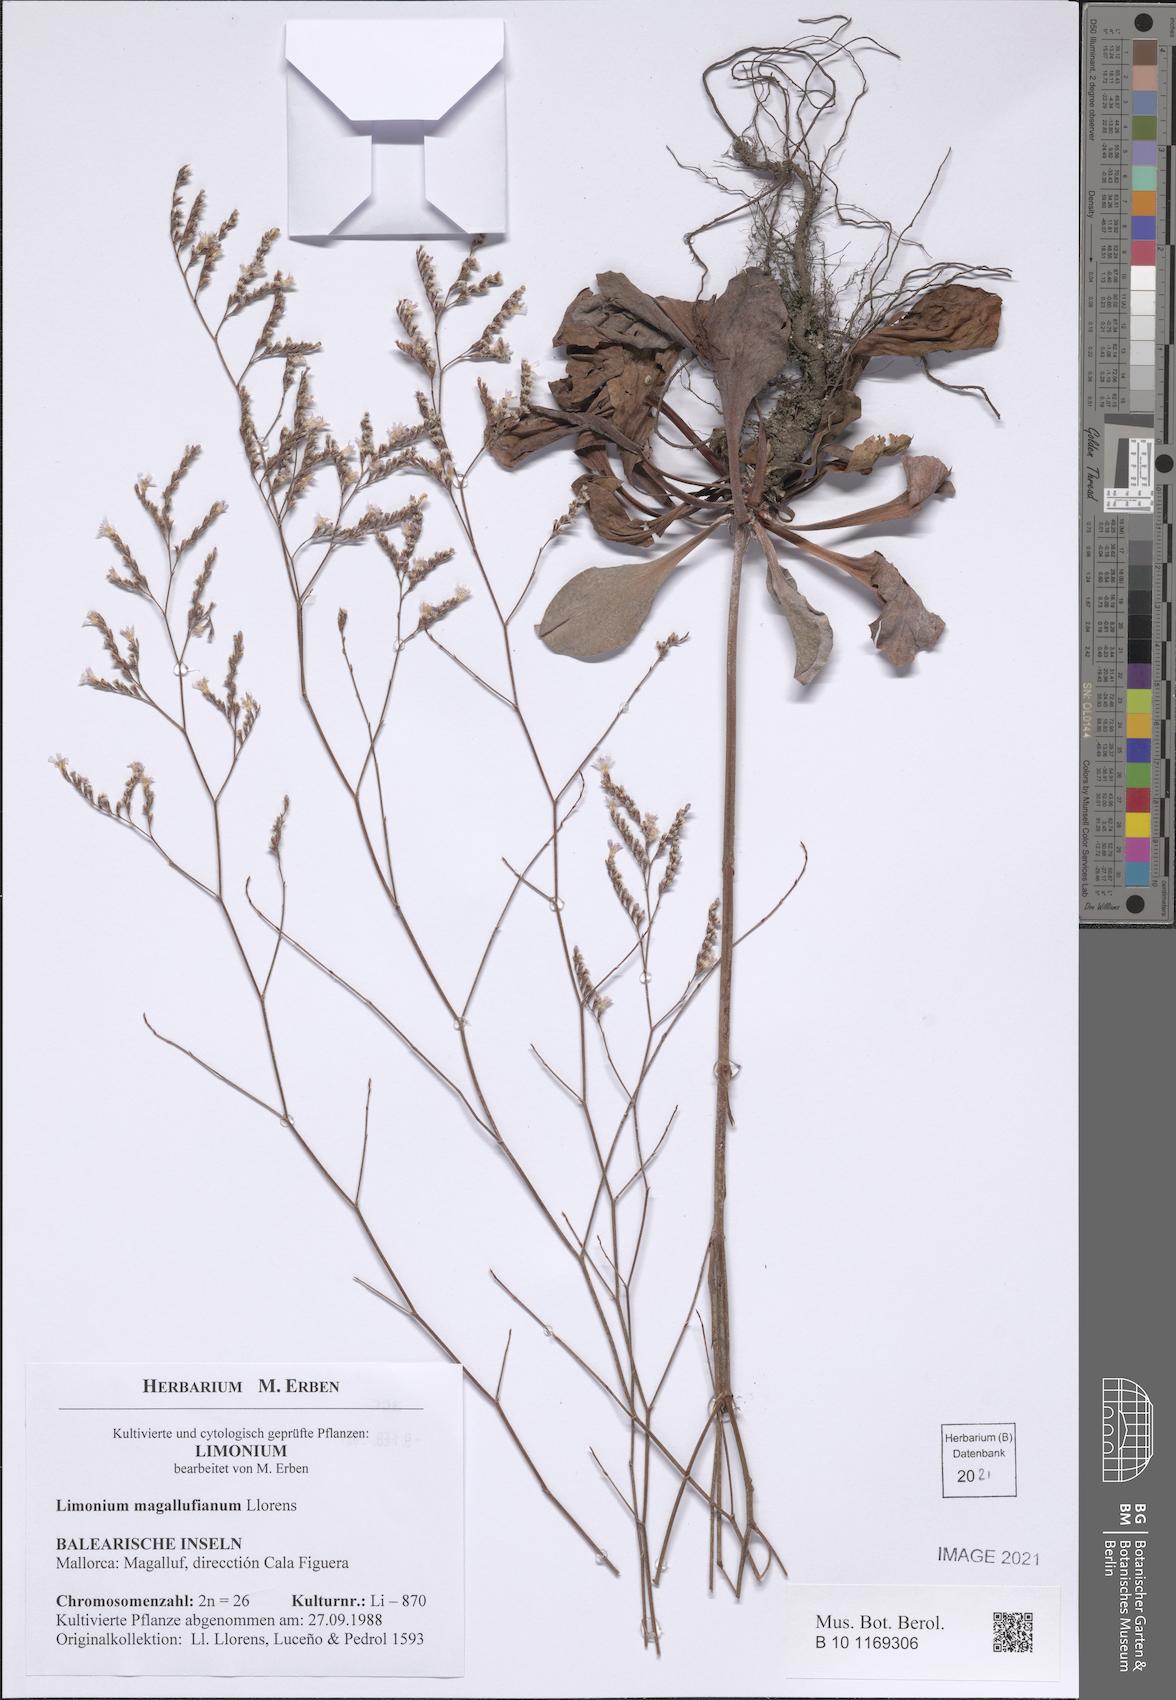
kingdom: Plantae
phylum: Tracheophyta
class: Magnoliopsida
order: Caryophyllales
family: Plumbaginaceae
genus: Limonium
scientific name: Limonium magallufianum
